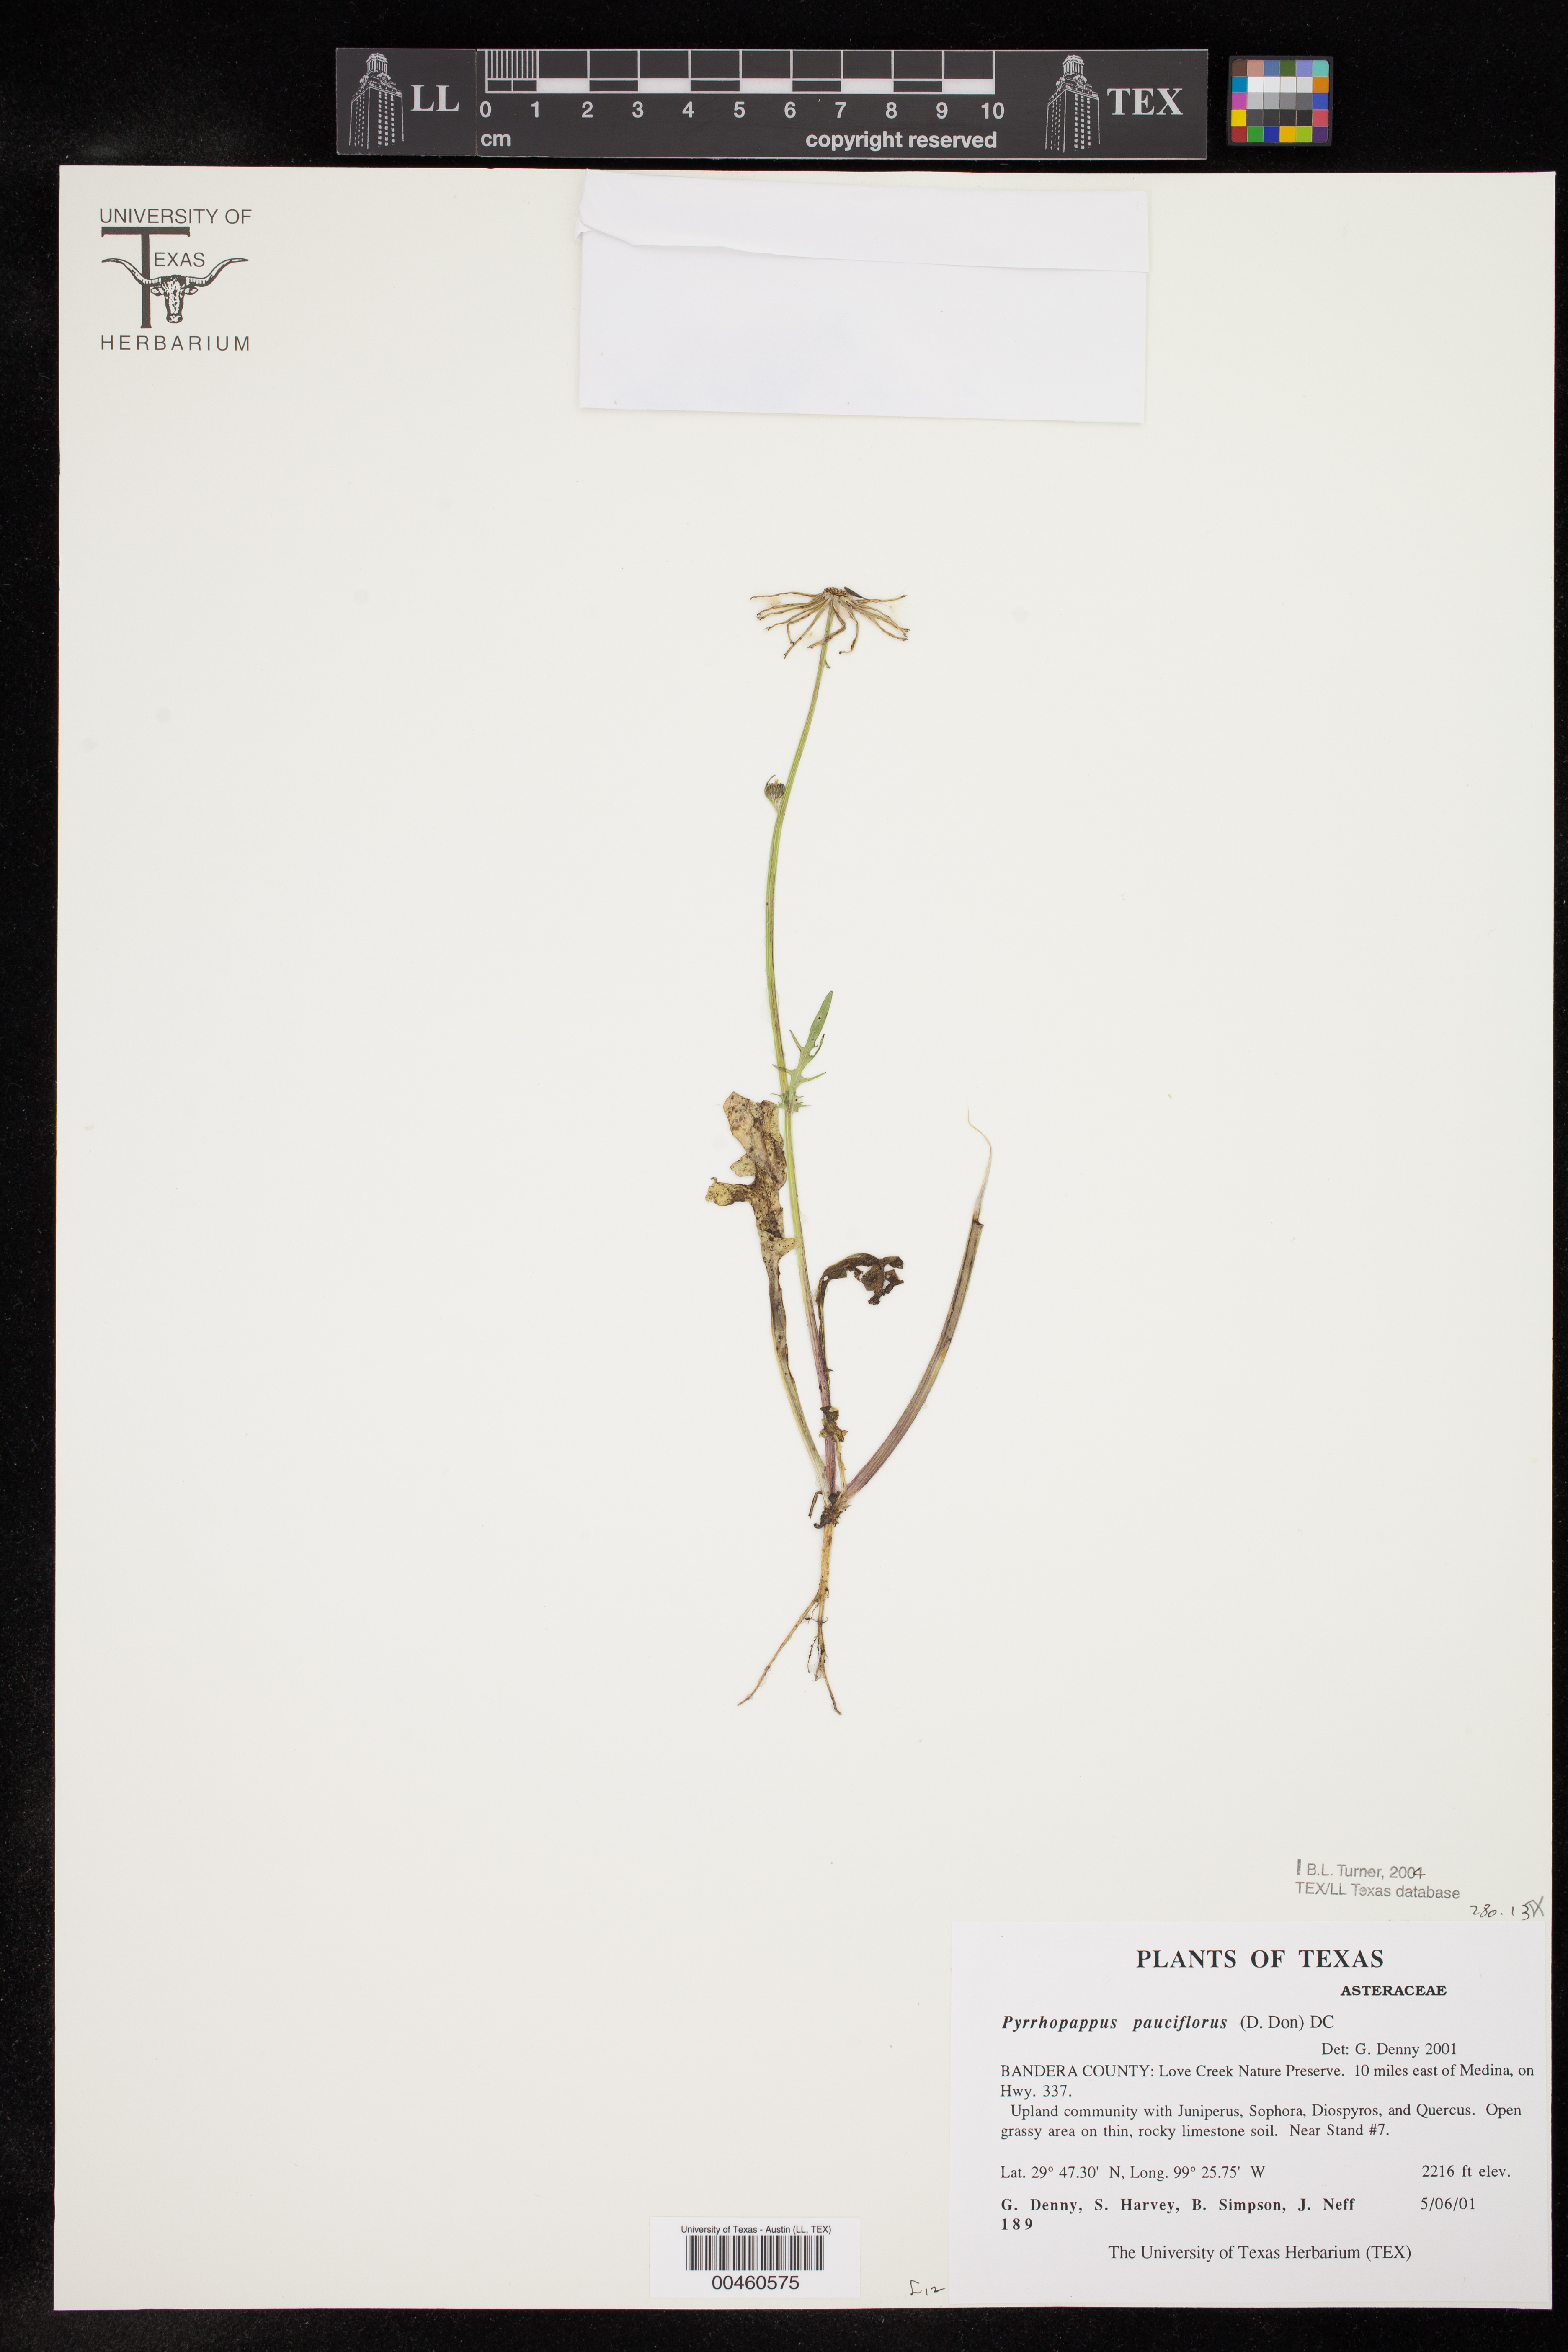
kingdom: Plantae
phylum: Tracheophyta
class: Magnoliopsida
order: Asterales
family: Asteraceae
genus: Pyrrhopappus
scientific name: Pyrrhopappus pauciflorus
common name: Texas false dandelion
